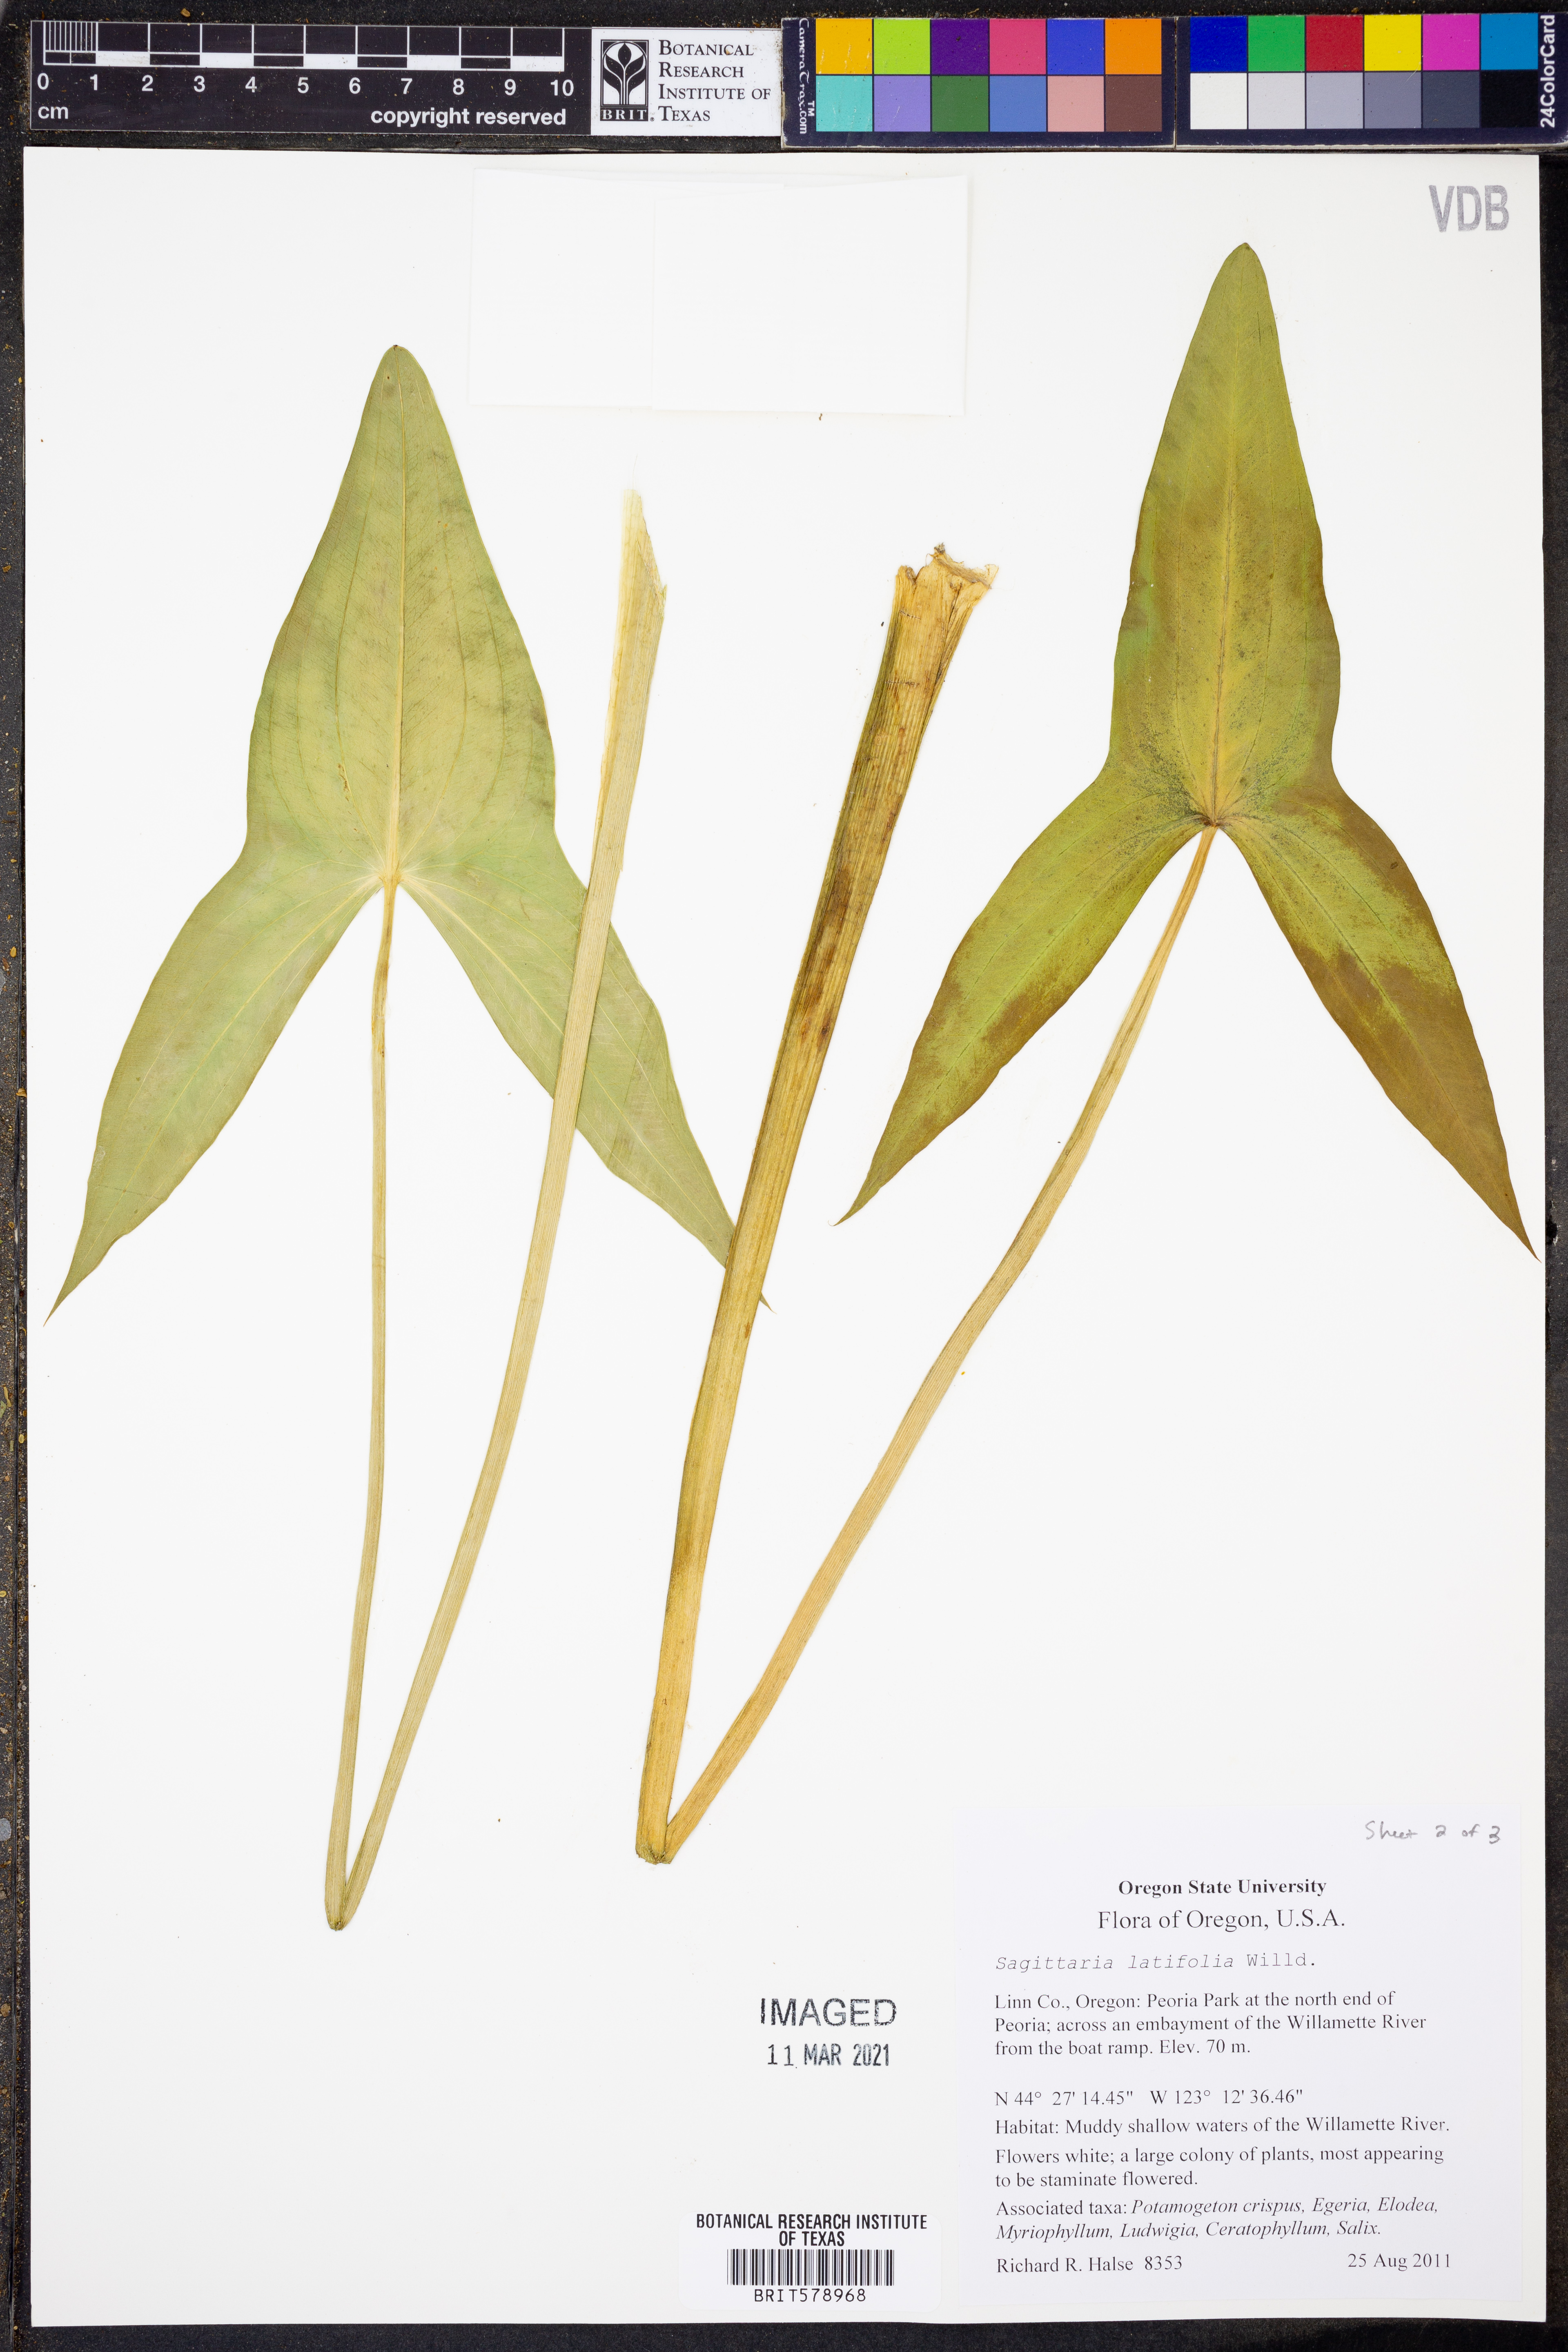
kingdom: Plantae
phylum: Tracheophyta
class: Liliopsida
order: Alismatales
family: Alismataceae
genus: Sagittaria
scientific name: Sagittaria latifolia
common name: Duck-potato
